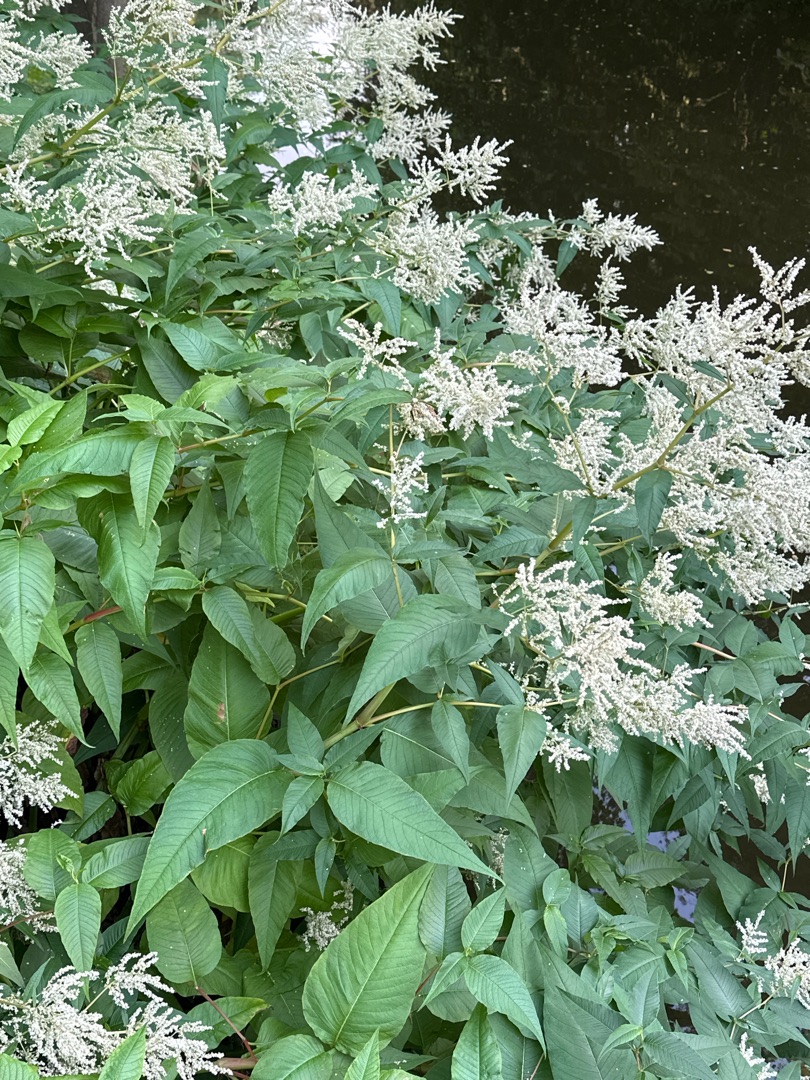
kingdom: Plantae
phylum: Tracheophyta
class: Magnoliopsida
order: Caryophyllales
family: Polygonaceae
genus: Koenigia
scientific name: Koenigia fennica
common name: Finsk pileurt
